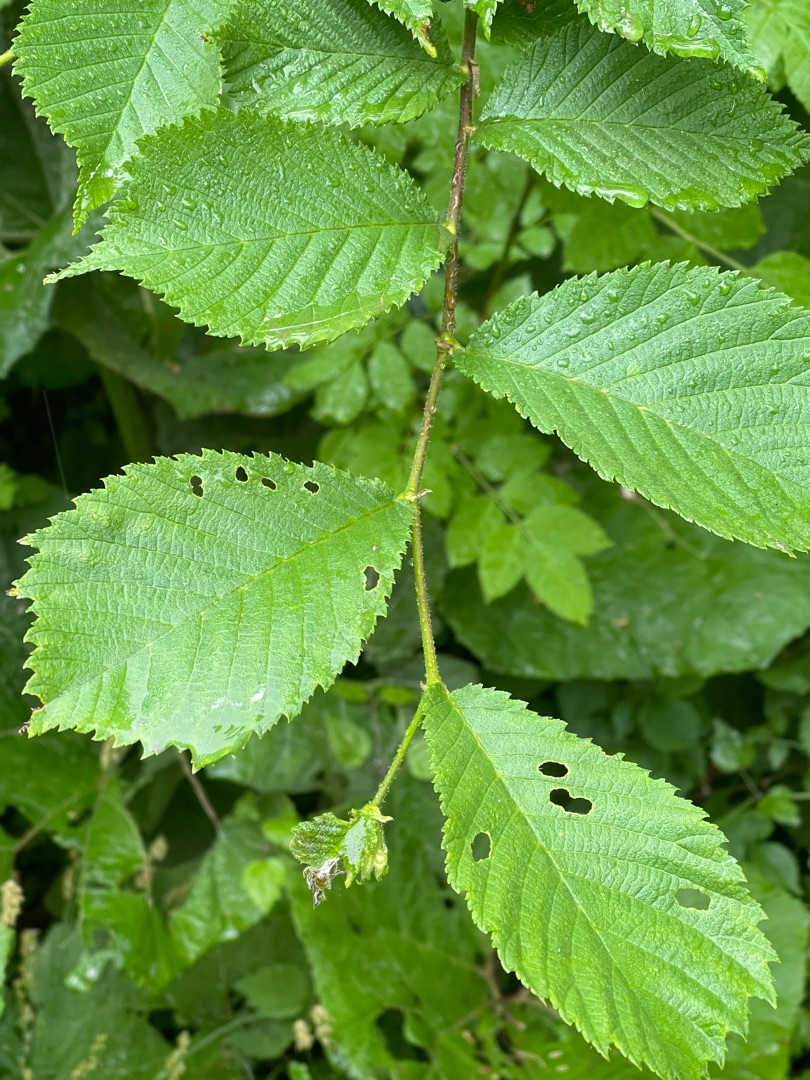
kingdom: Plantae
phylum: Tracheophyta
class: Magnoliopsida
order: Rosales
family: Ulmaceae
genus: Ulmus
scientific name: Ulmus glabra
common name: Skov-elm/storbladet elm
